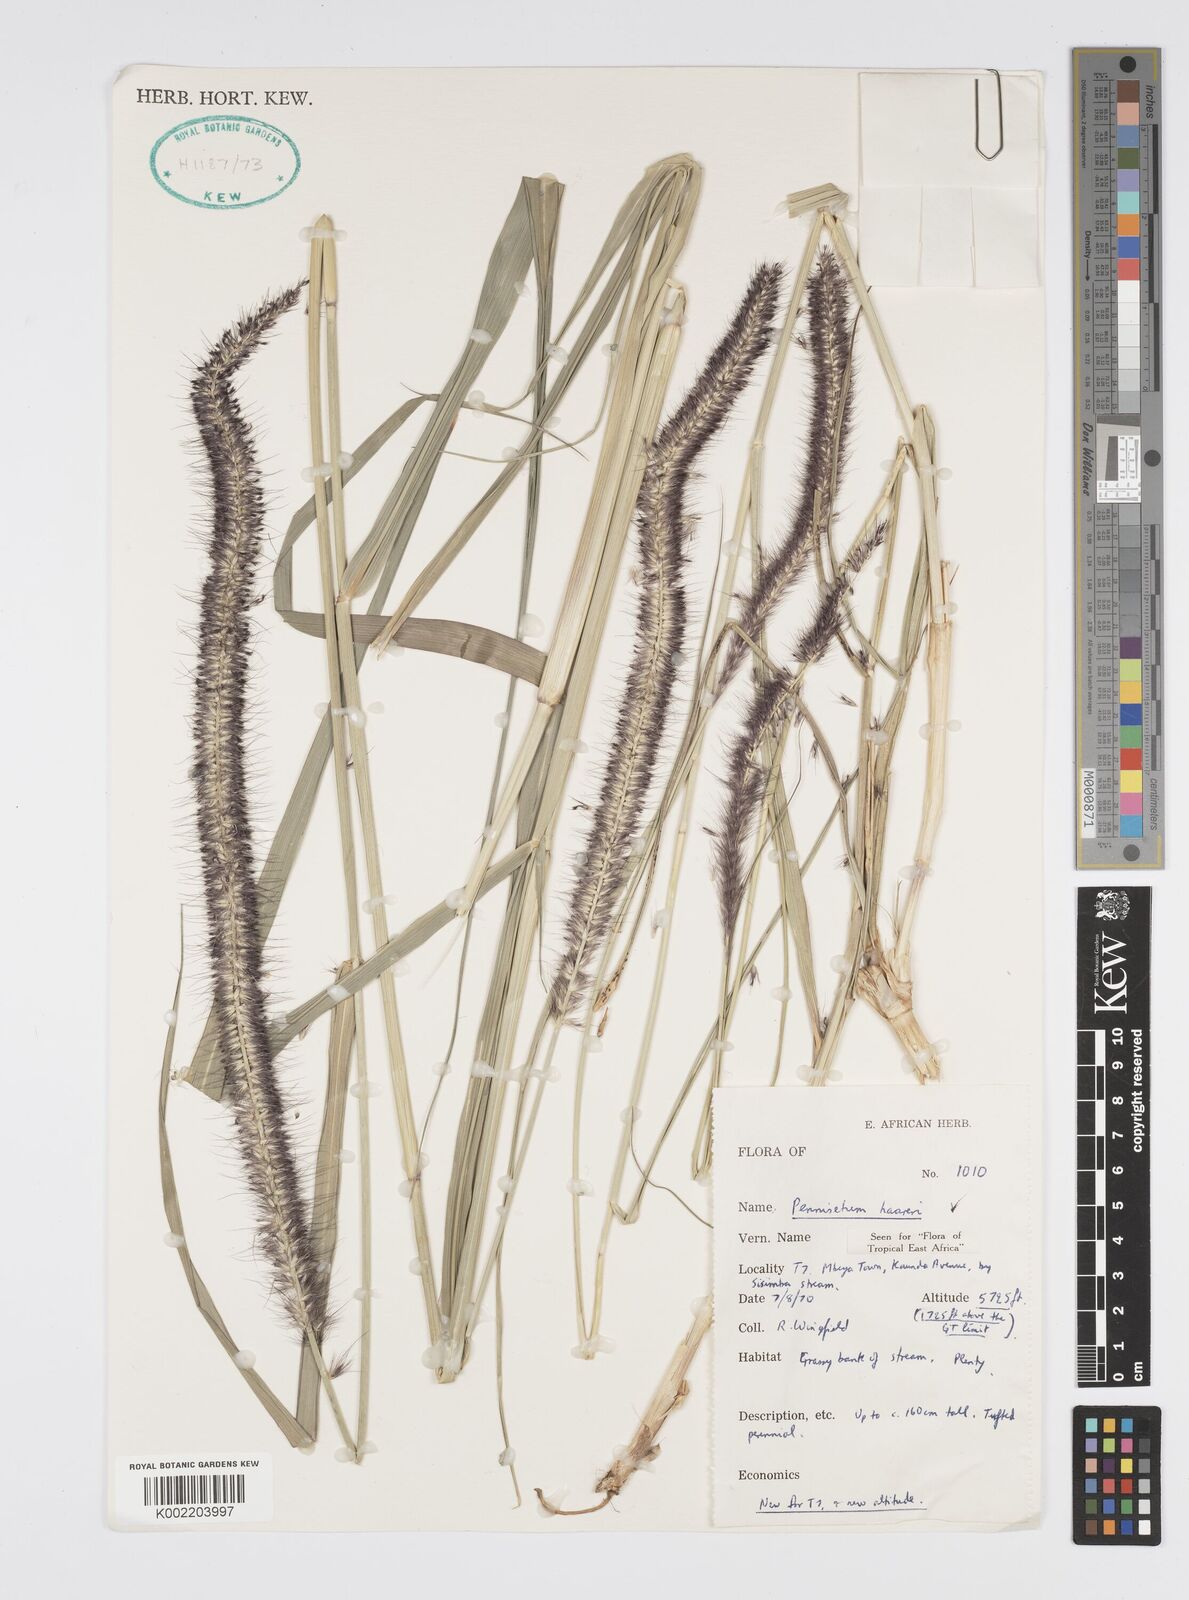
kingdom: Plantae
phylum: Tracheophyta
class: Liliopsida
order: Poales
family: Poaceae
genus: Cenchrus
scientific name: Cenchrus caudatus
